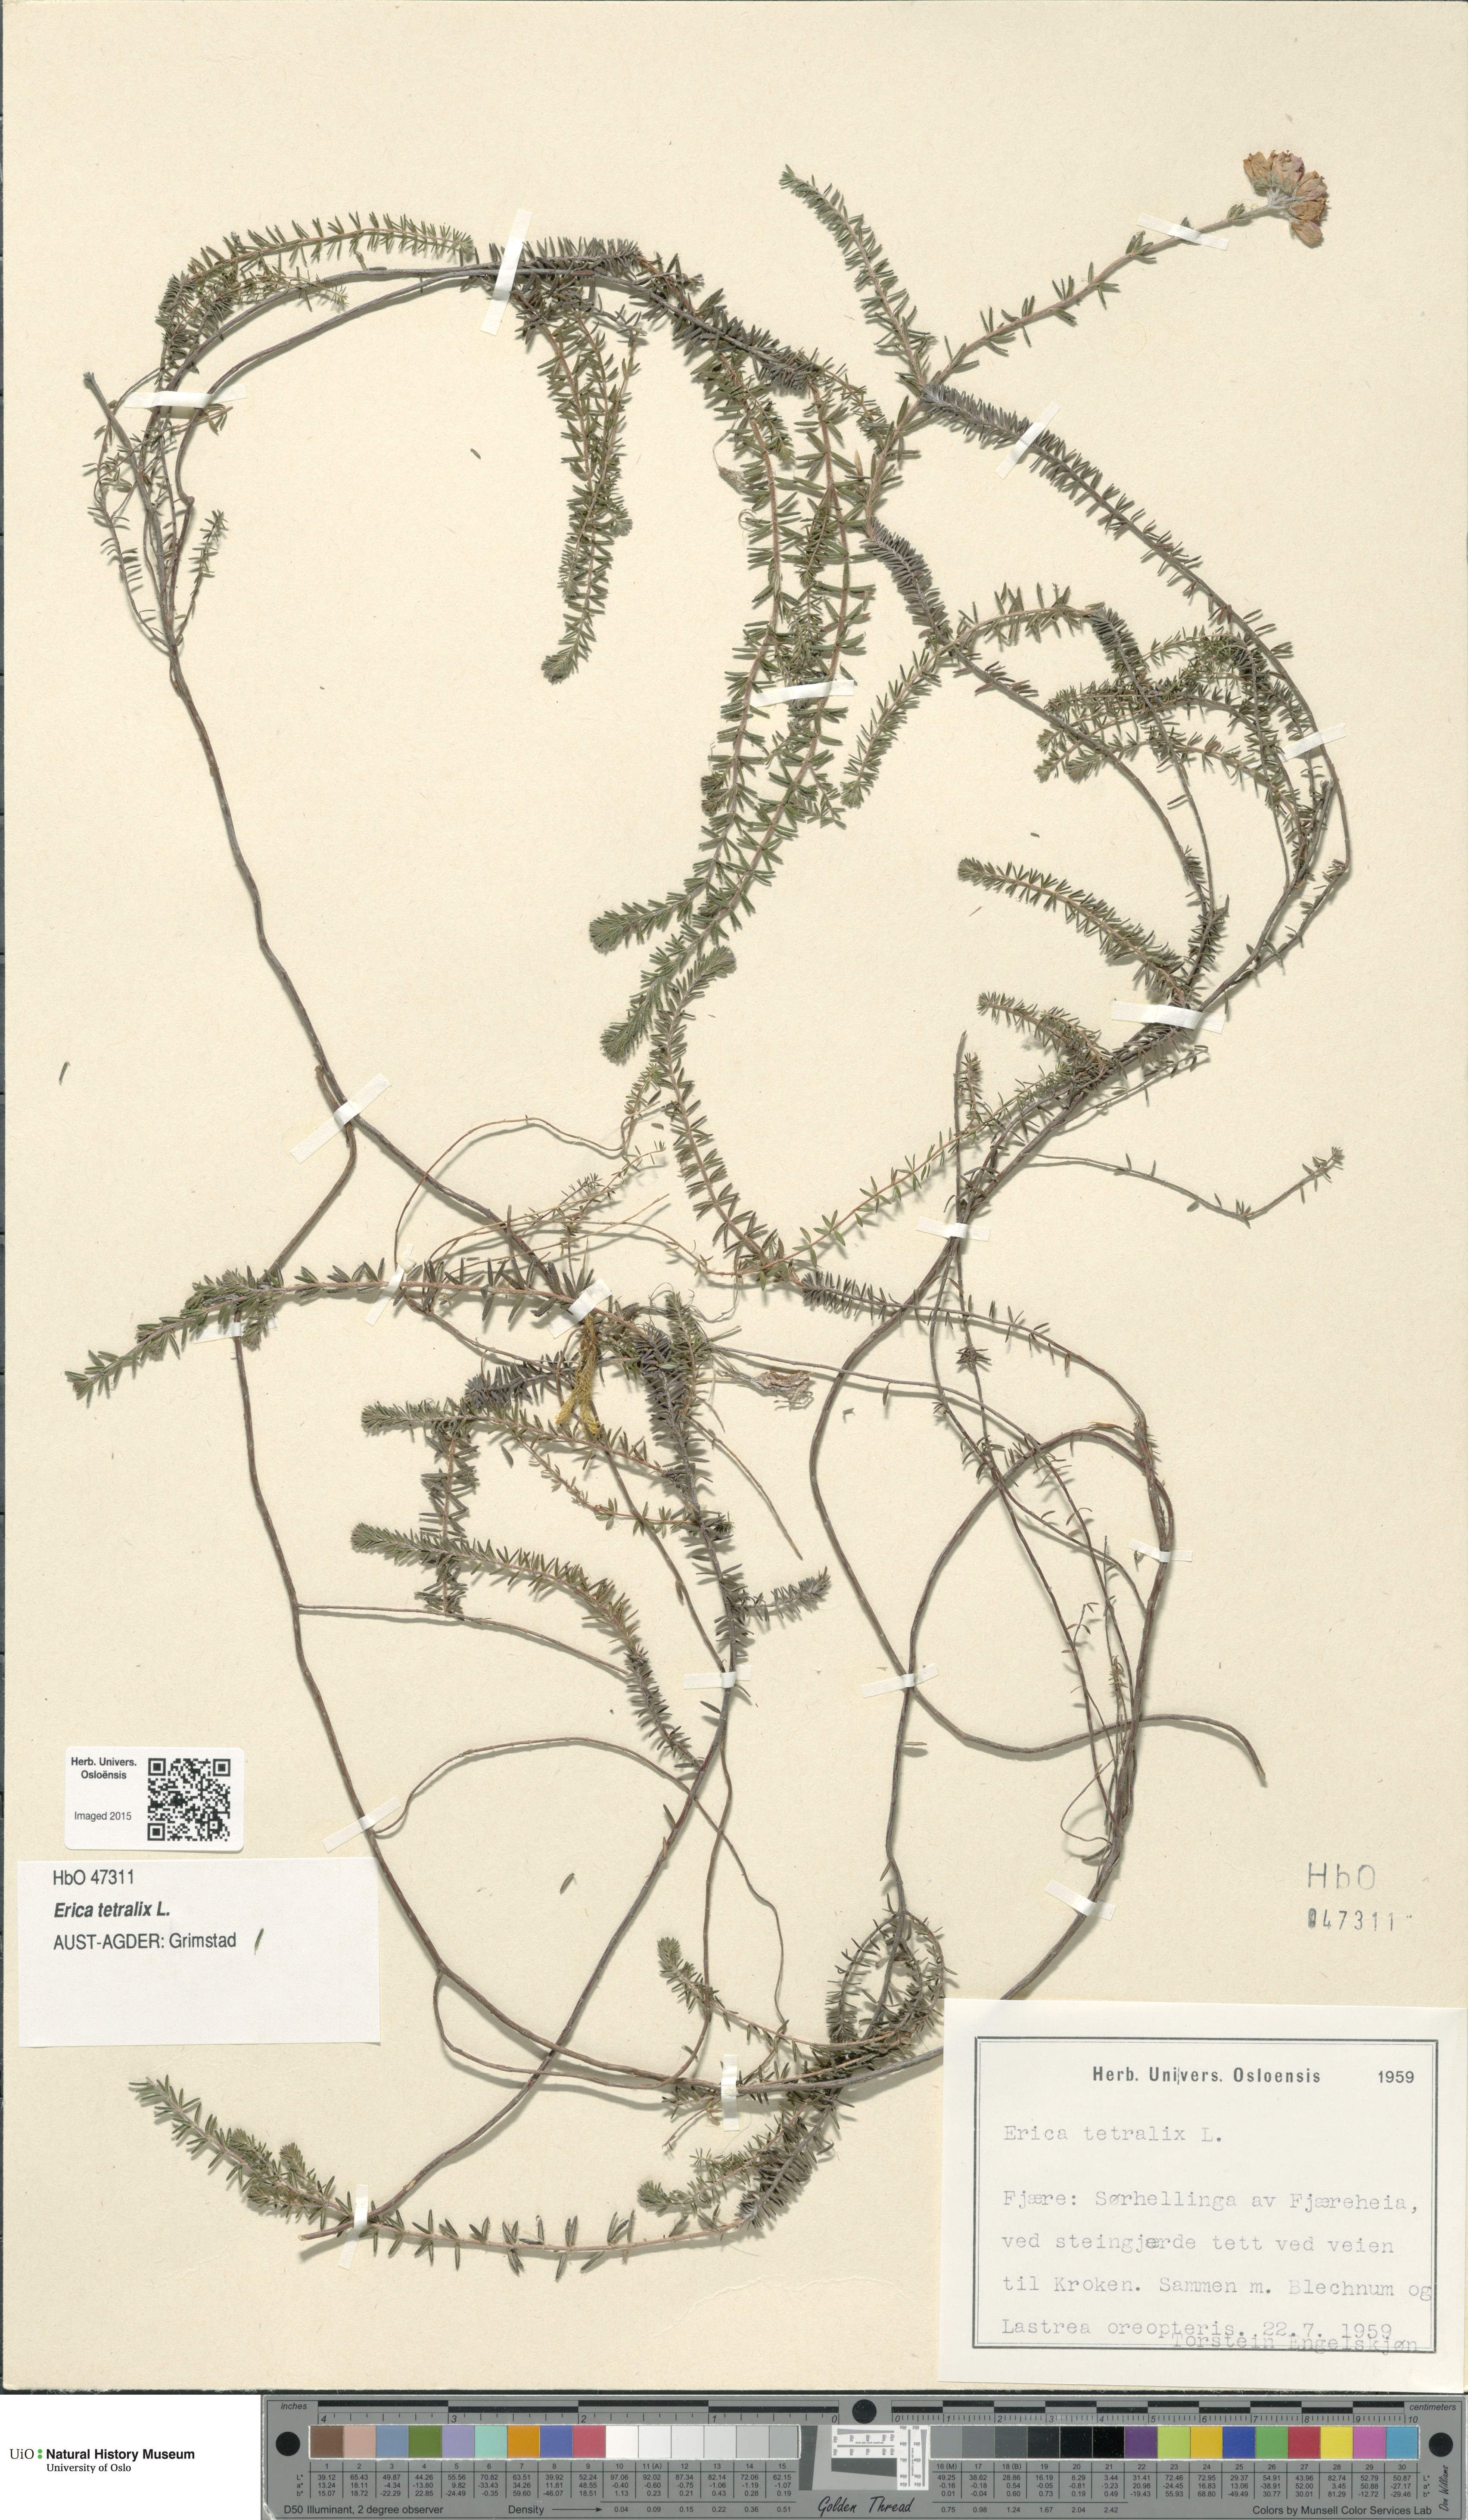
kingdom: Plantae
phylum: Tracheophyta
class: Magnoliopsida
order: Ericales
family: Ericaceae
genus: Erica
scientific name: Erica tetralix
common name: Cross-leaved heath
